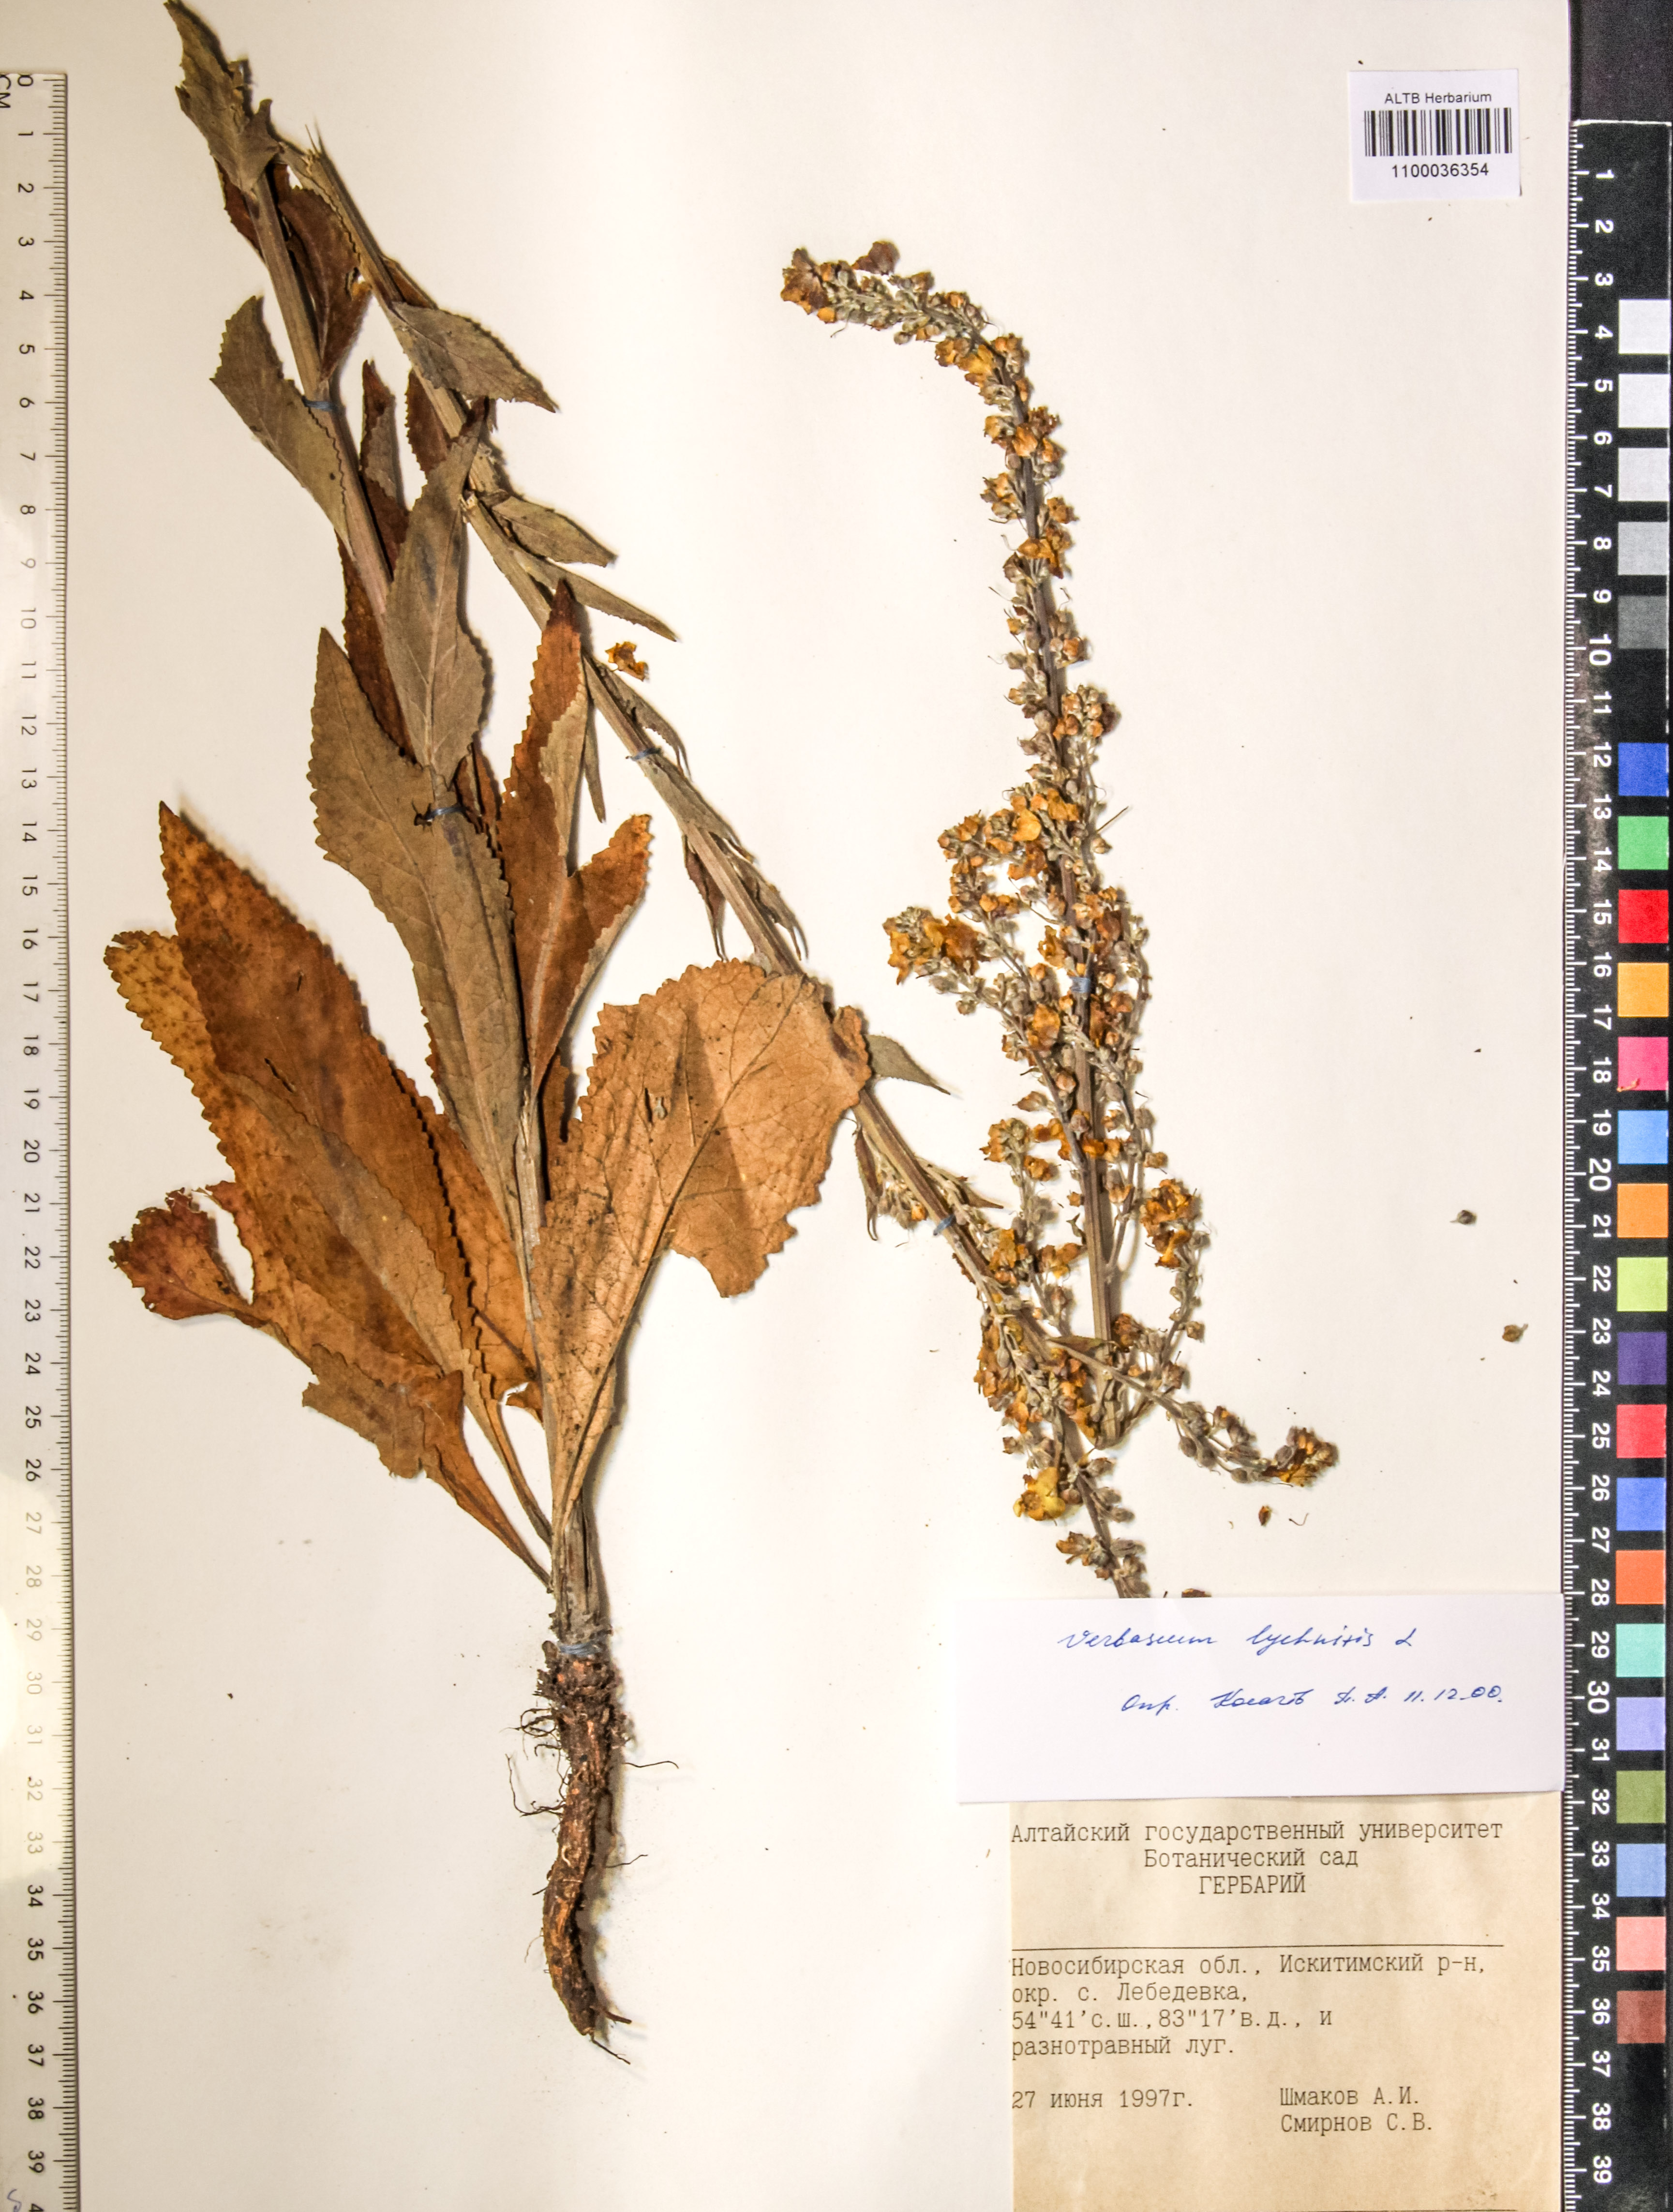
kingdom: Plantae
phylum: Tracheophyta
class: Magnoliopsida
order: Lamiales
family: Scrophulariaceae
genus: Verbascum
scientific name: Verbascum lychnitis
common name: White mullein
